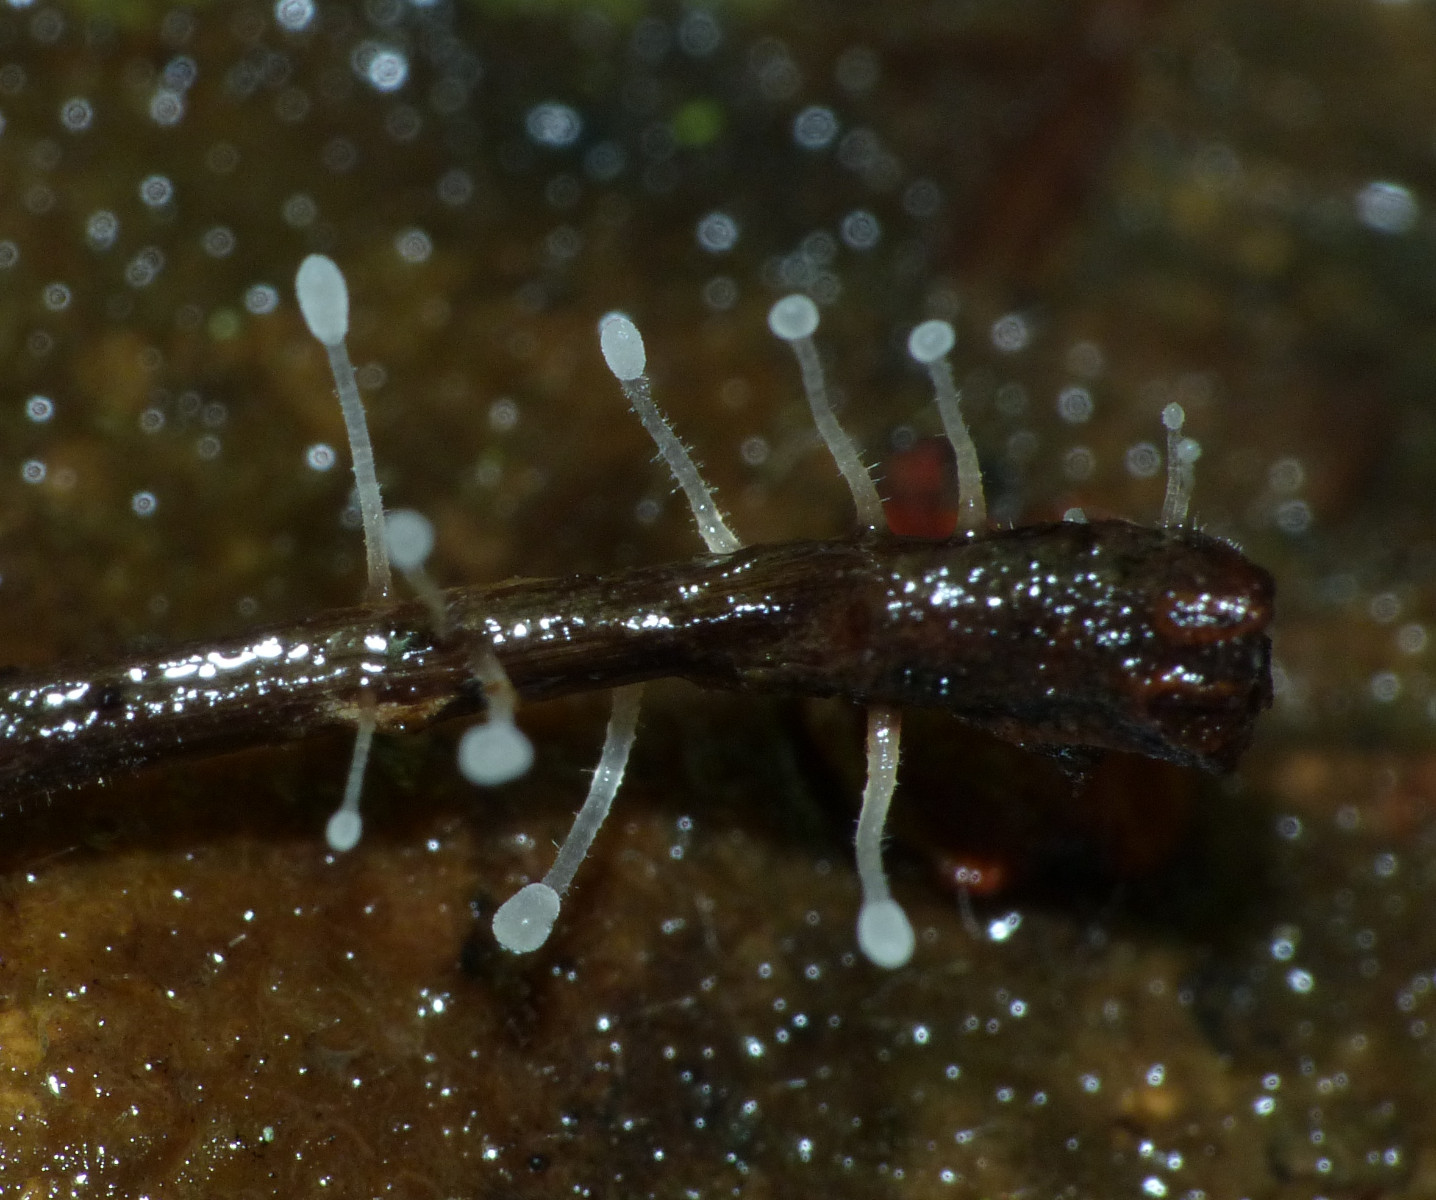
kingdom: Fungi
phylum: Basidiomycota
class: Agaricomycetes
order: Agaricales
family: Typhulaceae
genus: Typhula
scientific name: Typhula setipes
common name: liden trådkølle
